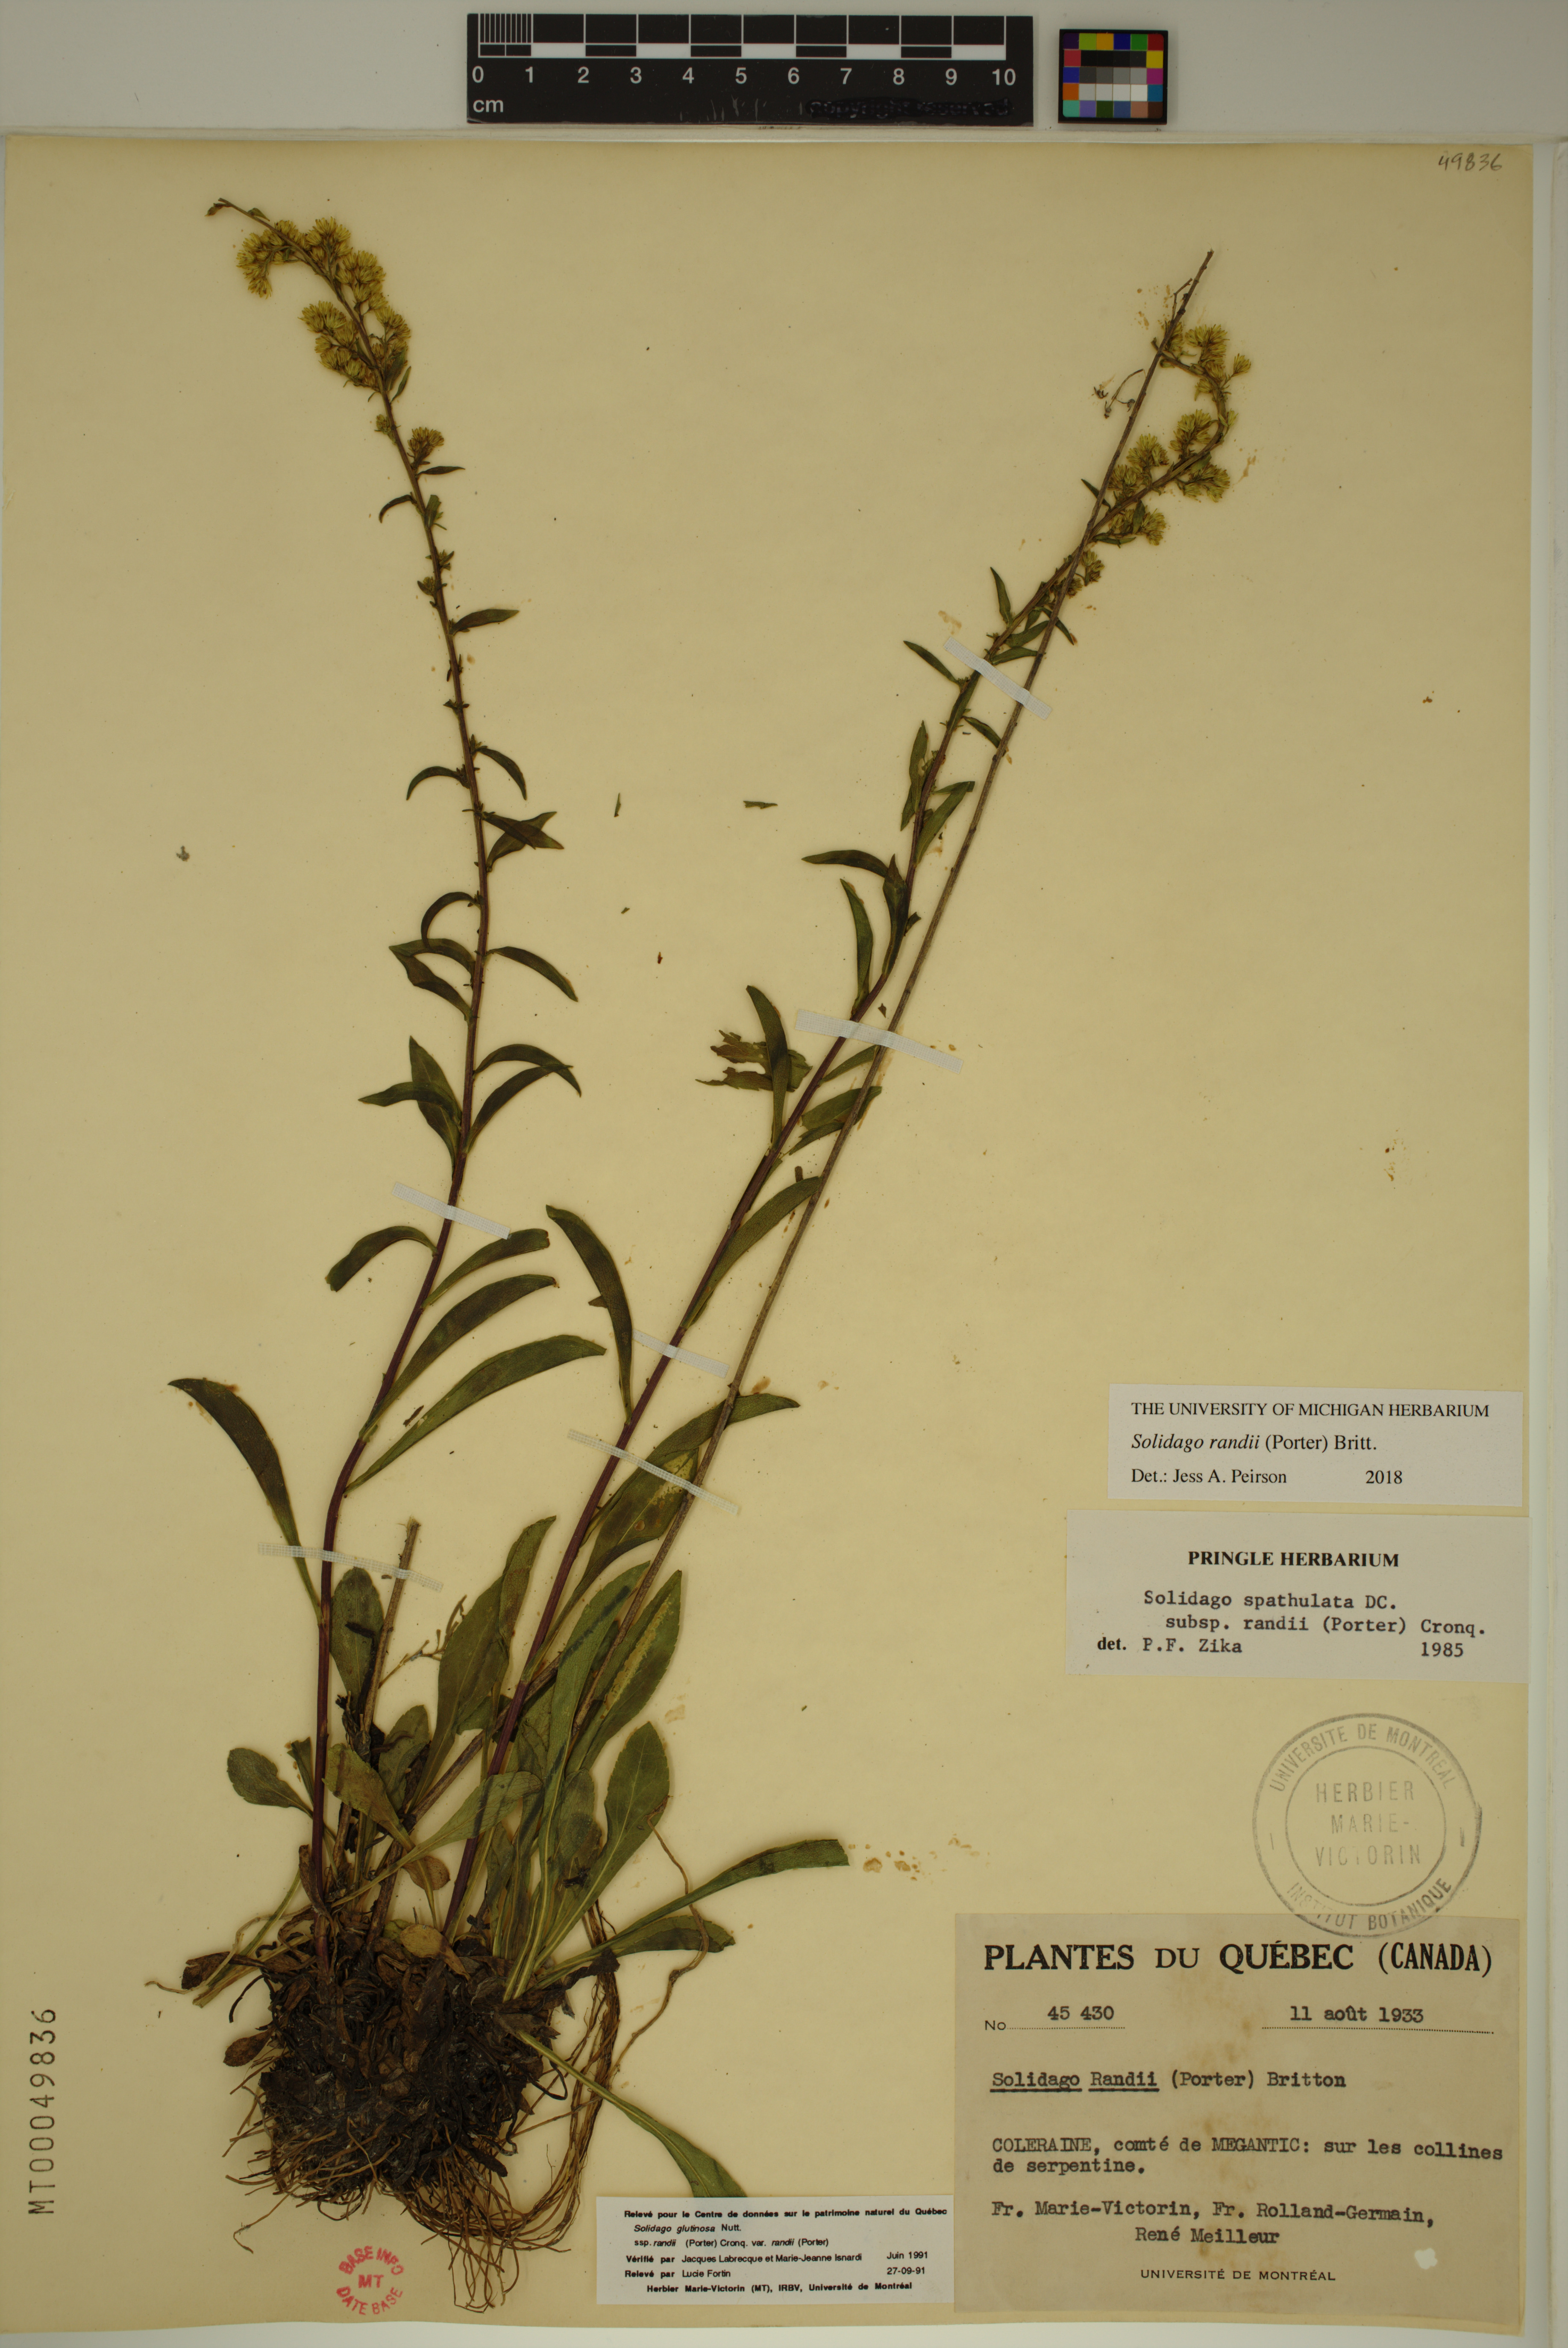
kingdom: Plantae
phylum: Tracheophyta
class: Magnoliopsida
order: Asterales
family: Asteraceae
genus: Solidago
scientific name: Solidago randii
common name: Rand's goldenrod
